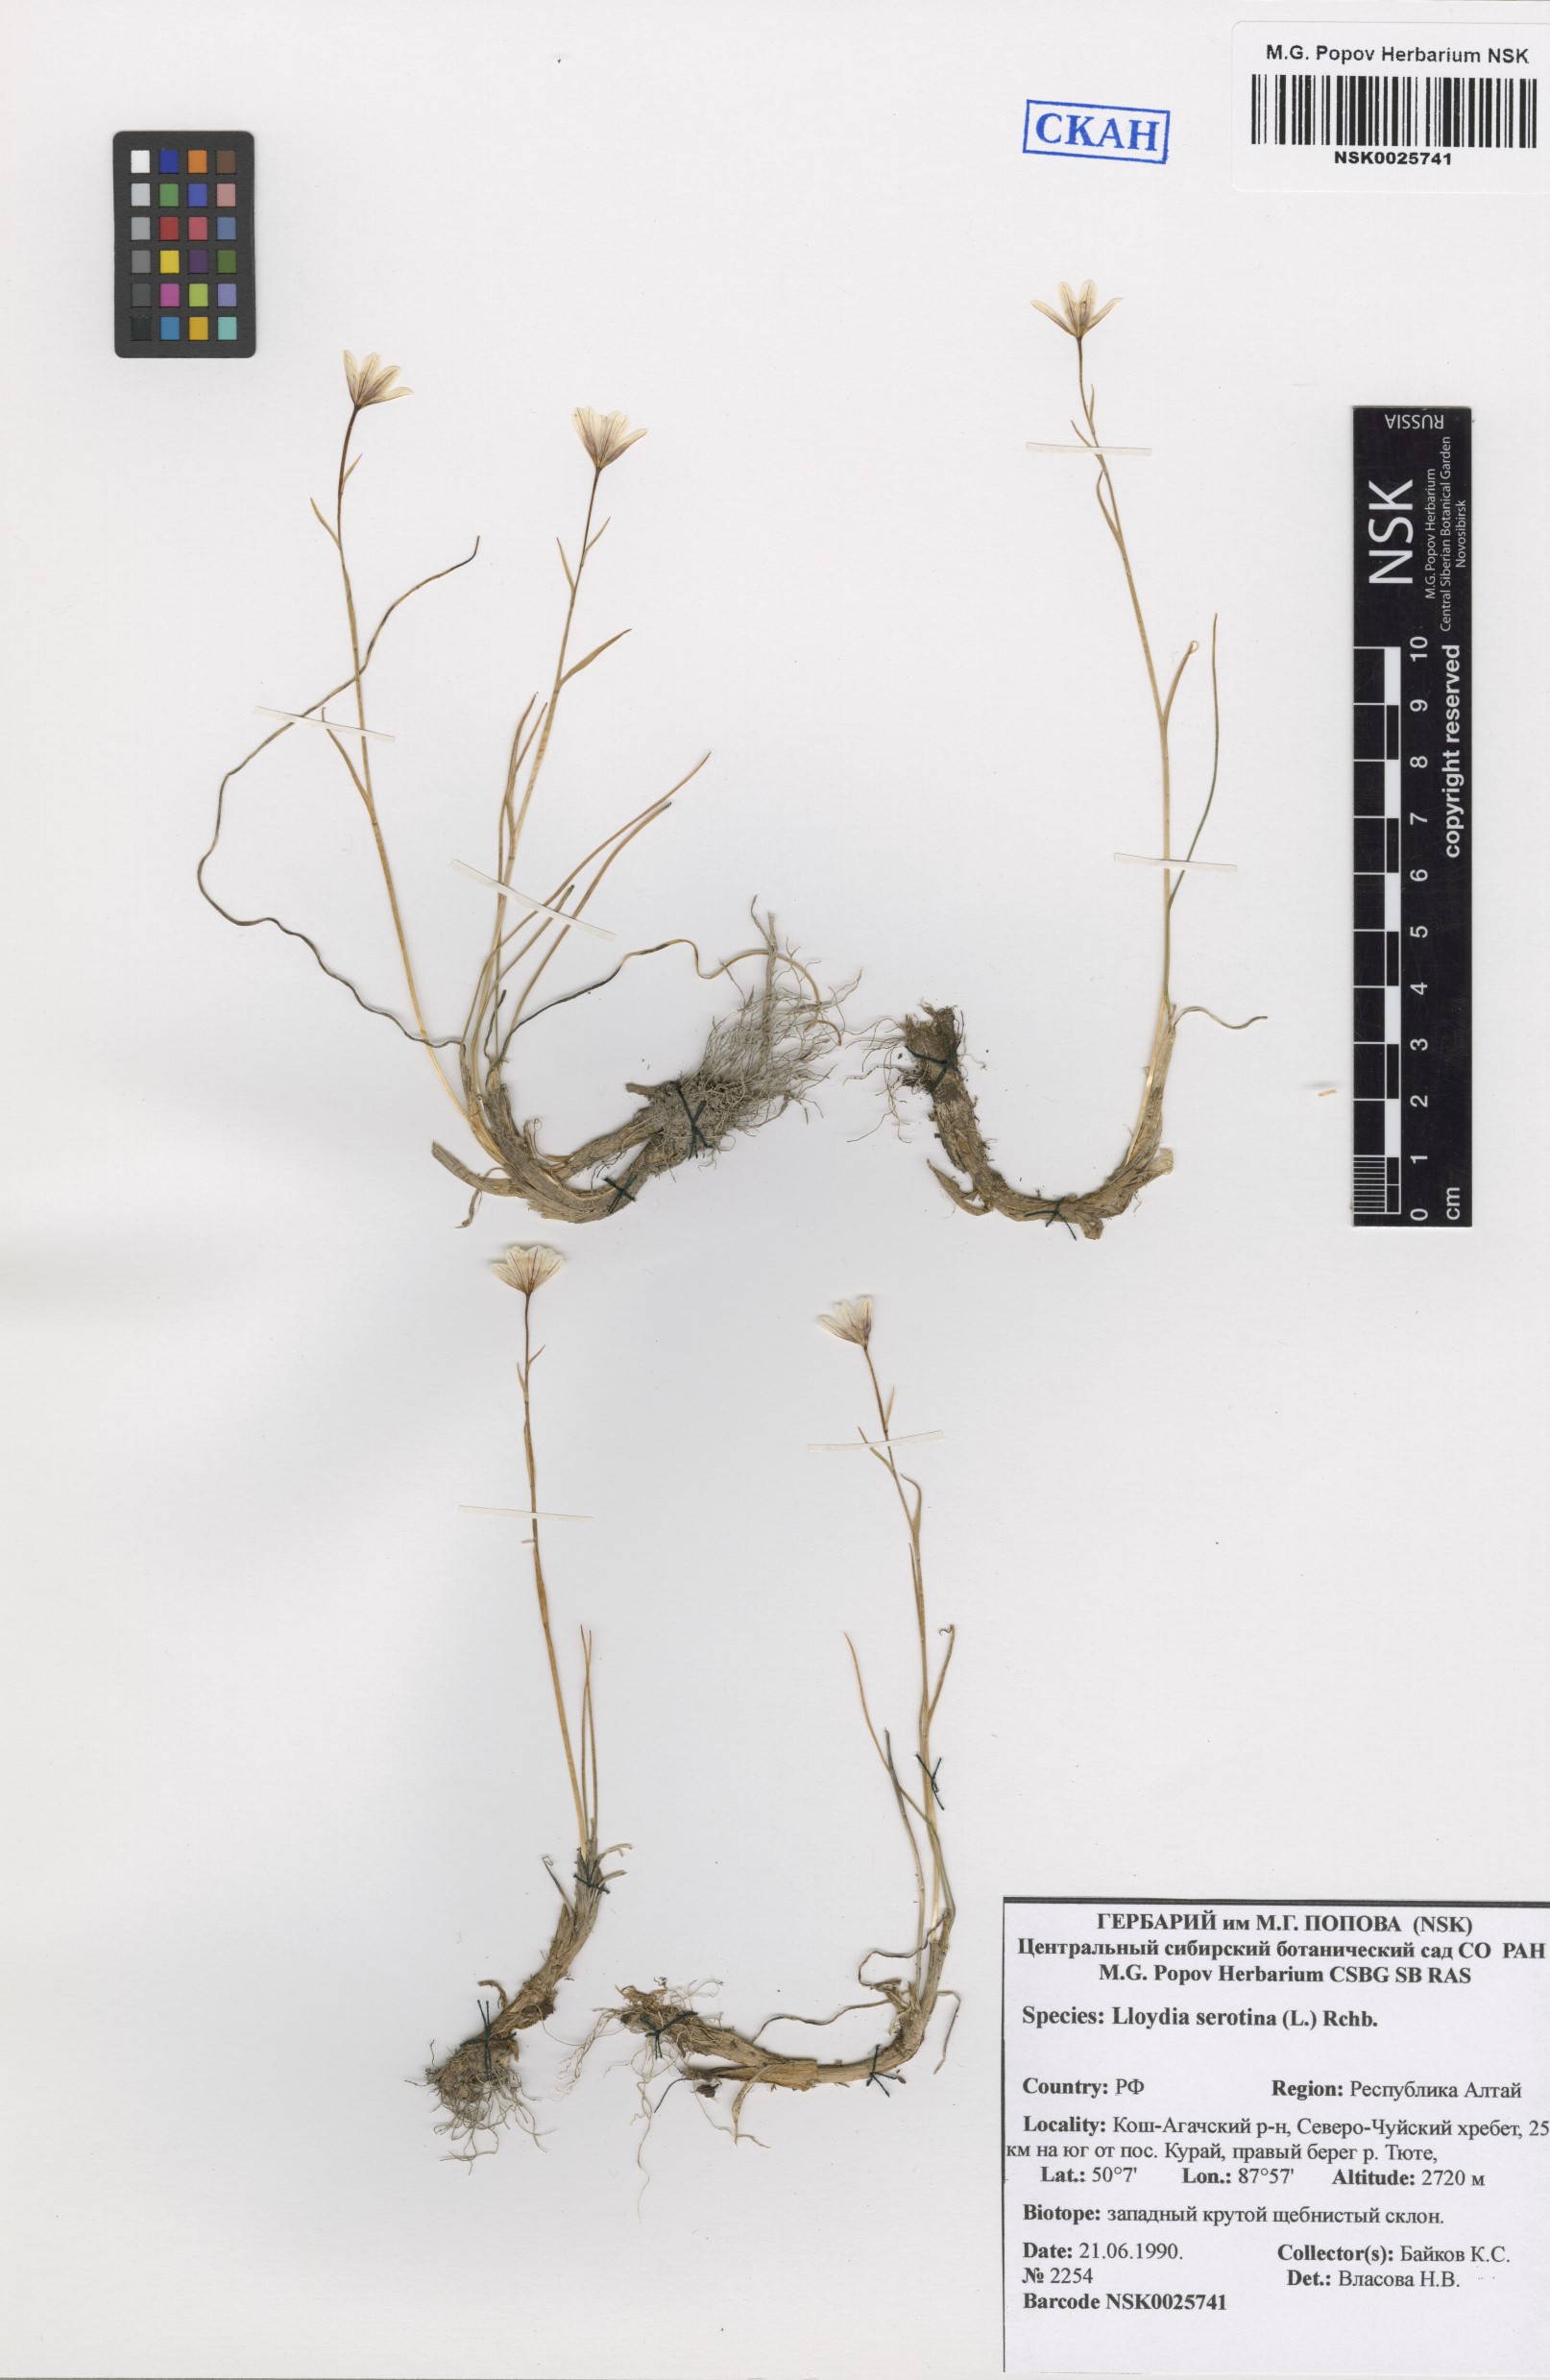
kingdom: Plantae
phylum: Tracheophyta
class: Liliopsida
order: Liliales
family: Liliaceae
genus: Gagea
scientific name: Gagea serotina
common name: Snowdon lily
